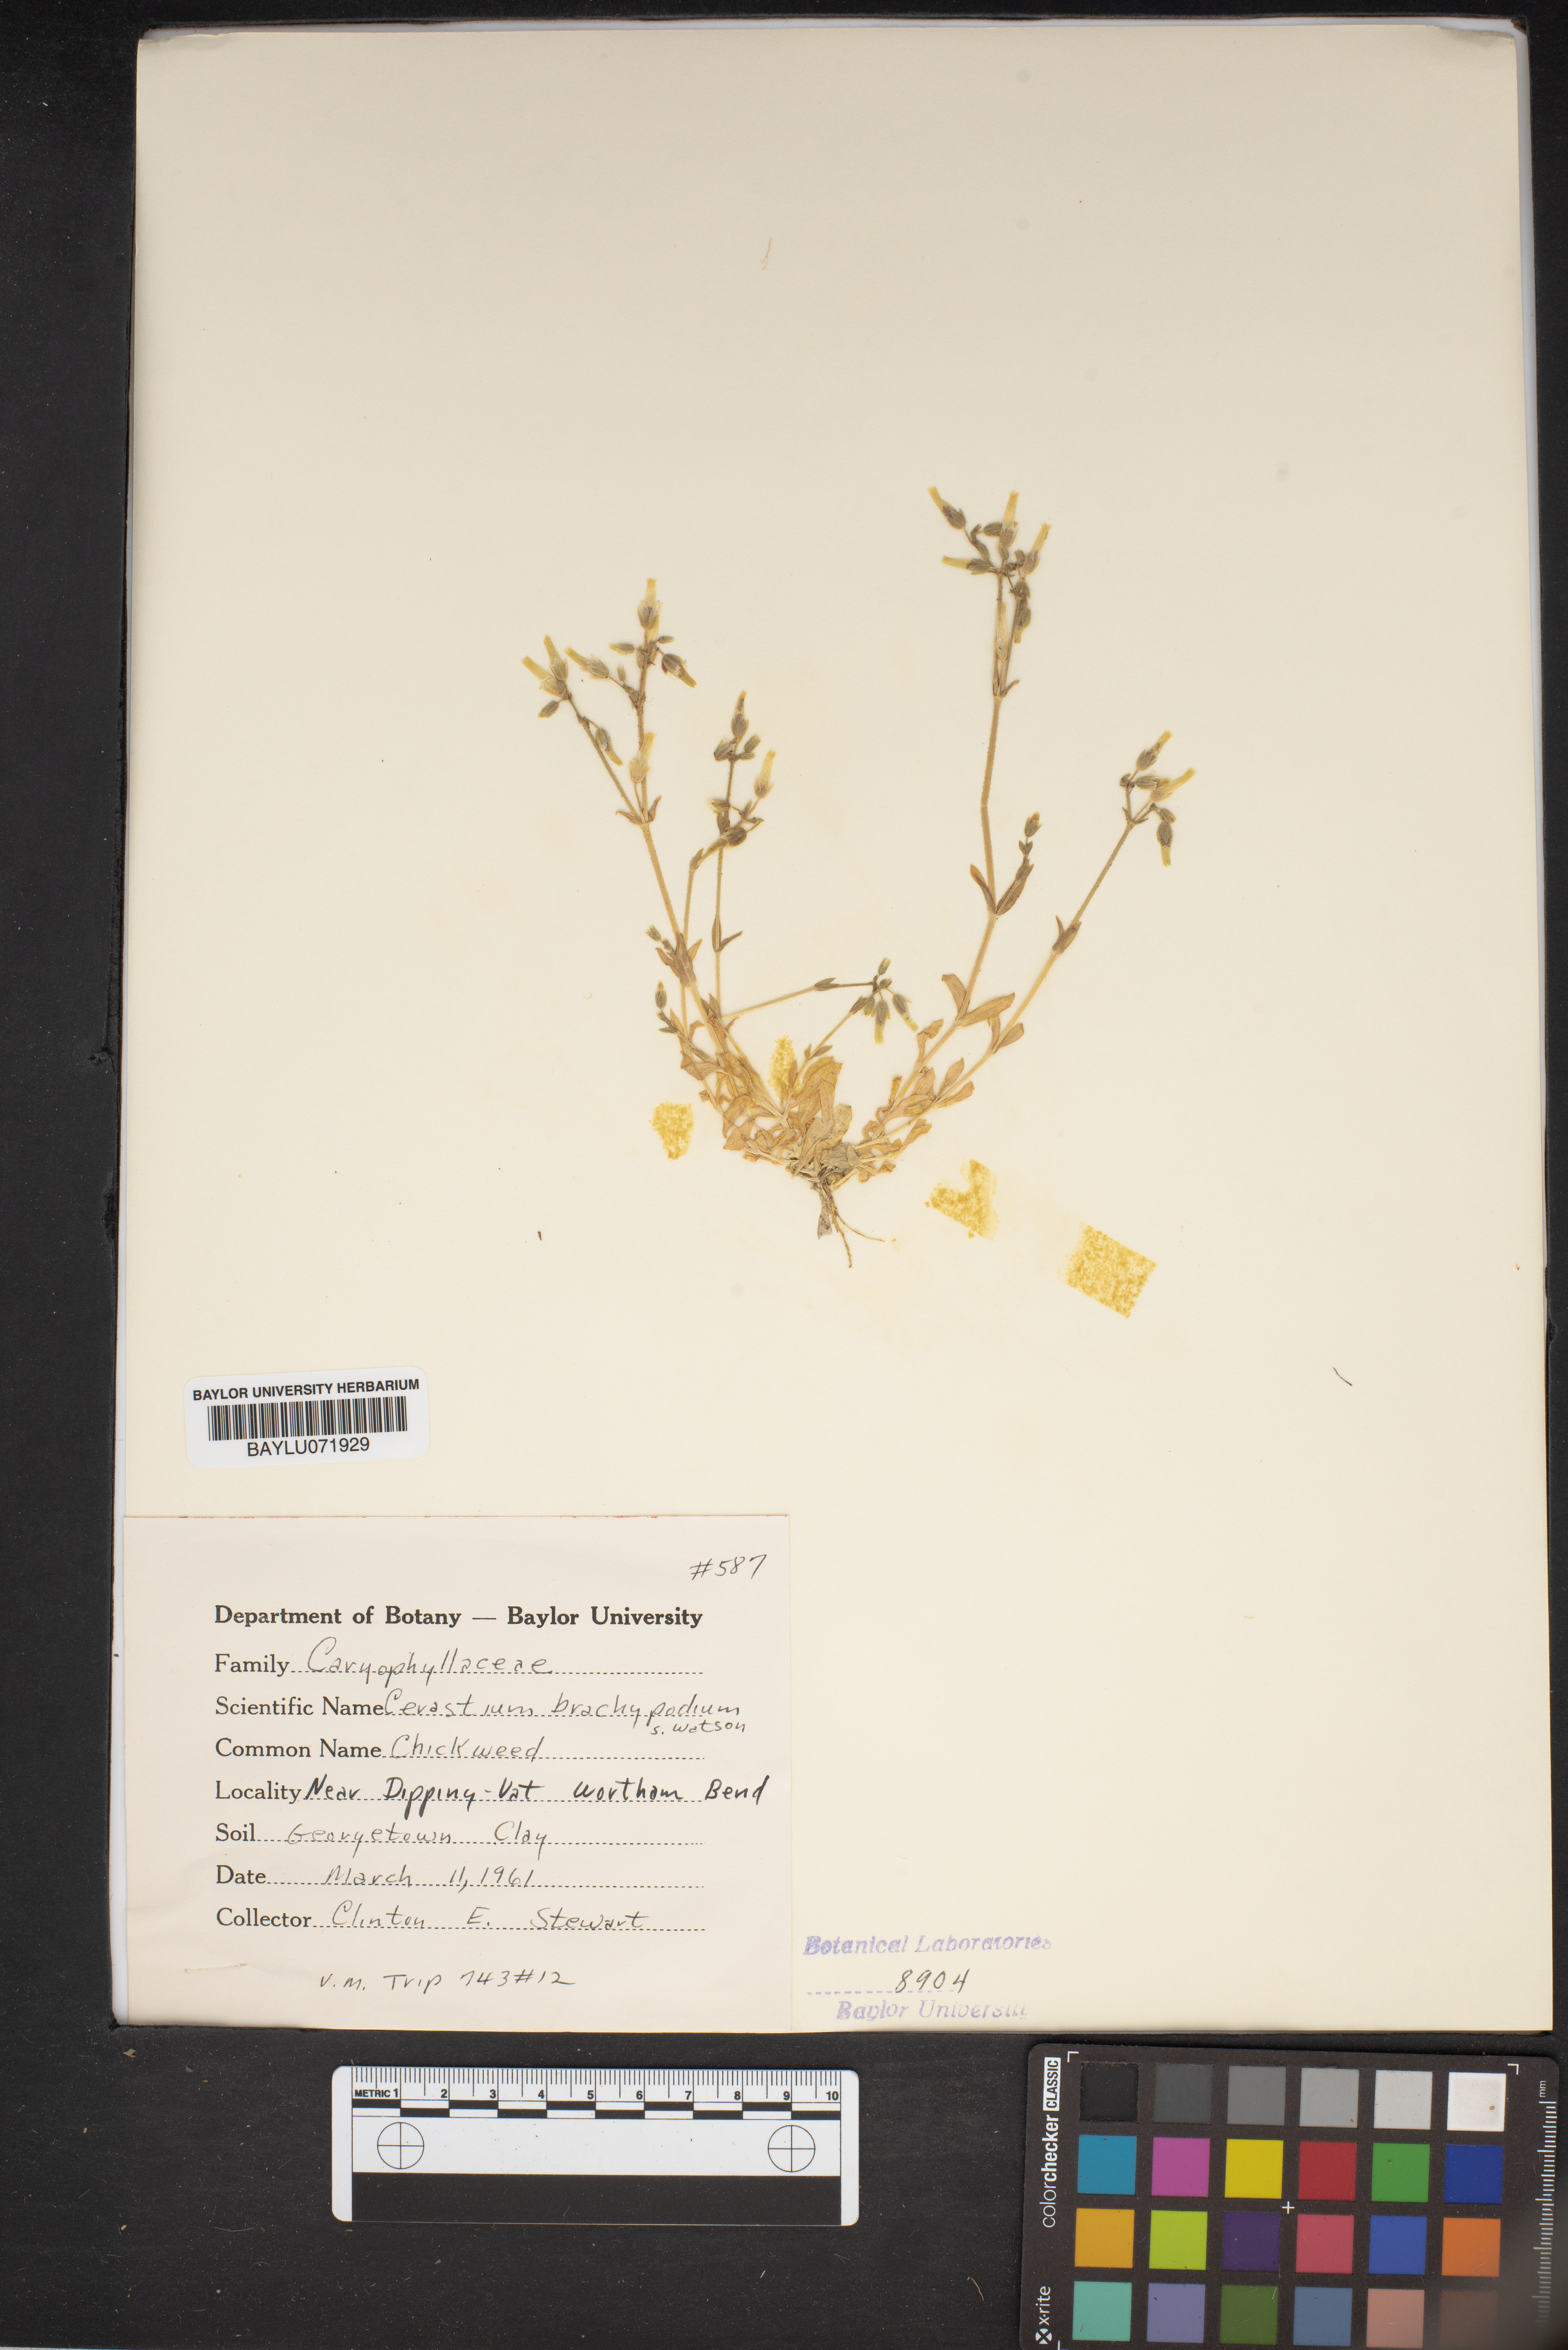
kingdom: Plantae
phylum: Tracheophyta
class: Magnoliopsida
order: Caryophyllales
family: Caryophyllaceae
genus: Cerastium
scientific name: Cerastium brachypodum
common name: Short-pedicelled nodding chickweed
